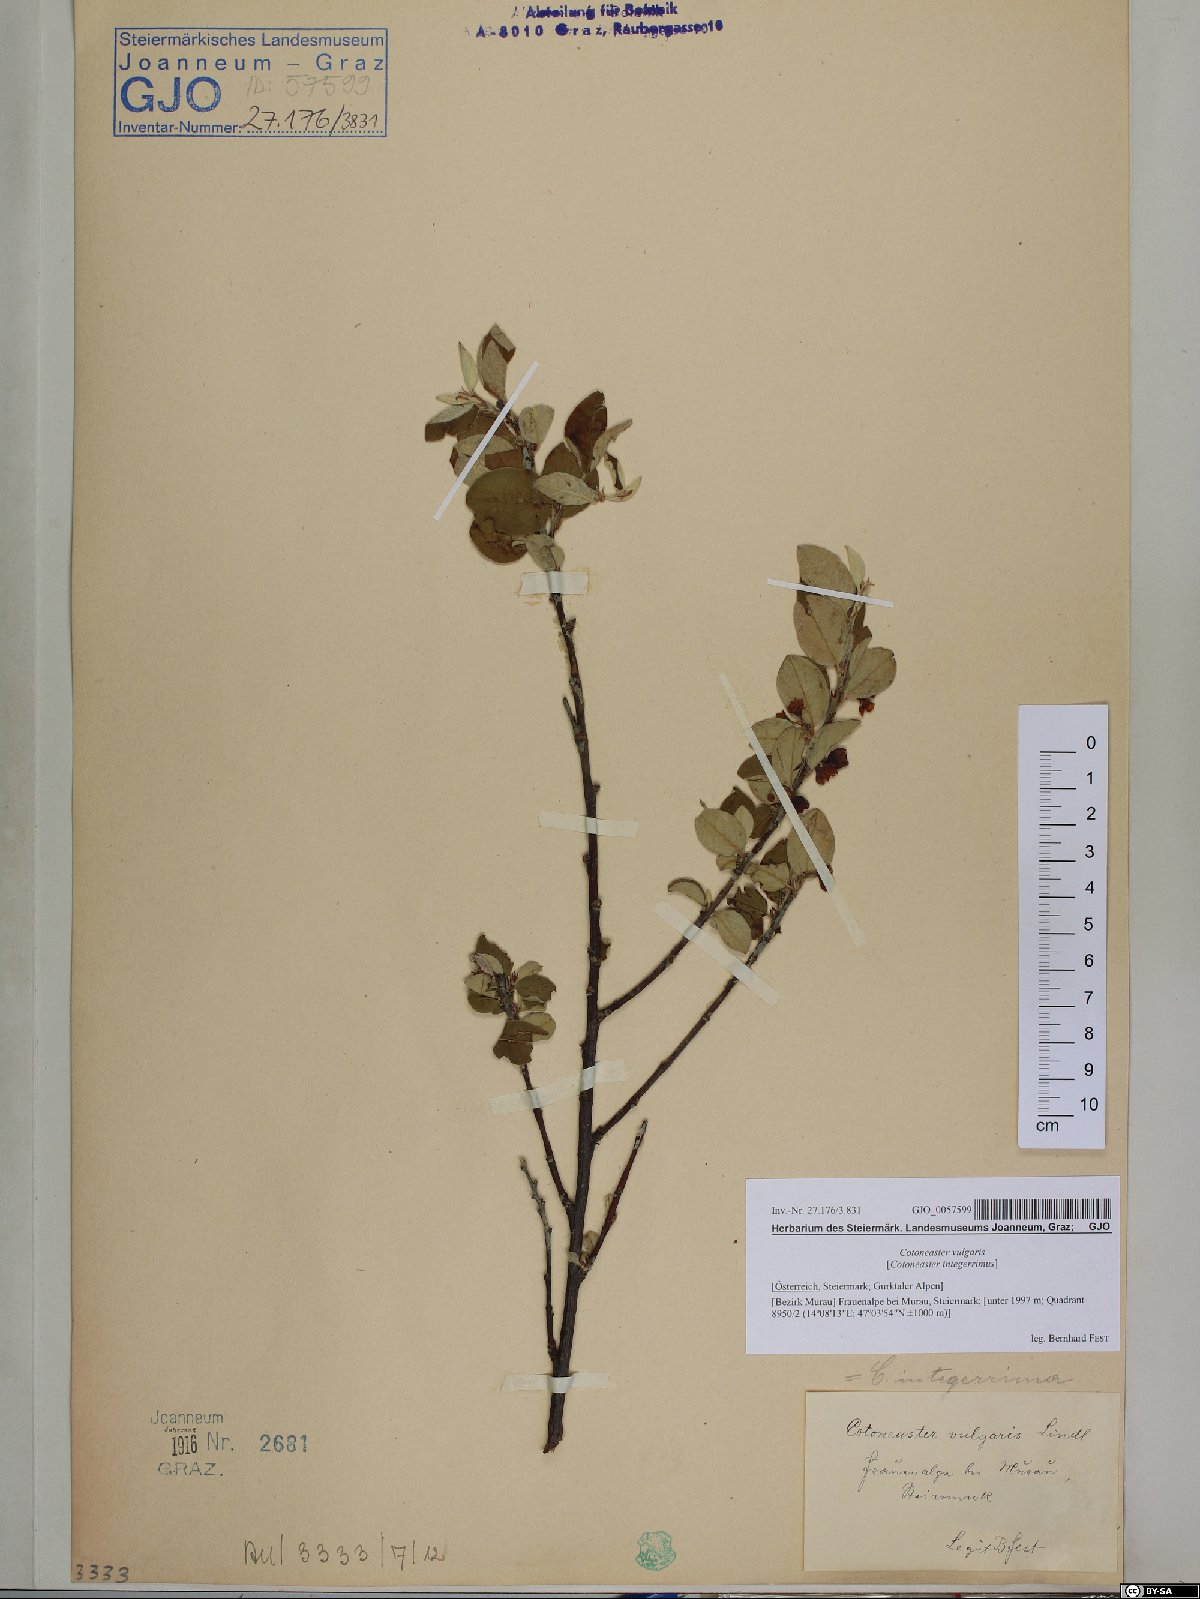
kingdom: Plantae
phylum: Tracheophyta
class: Magnoliopsida
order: Rosales
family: Rosaceae
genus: Cotoneaster
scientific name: Cotoneaster integerrimus
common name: Wild cotoneaster
